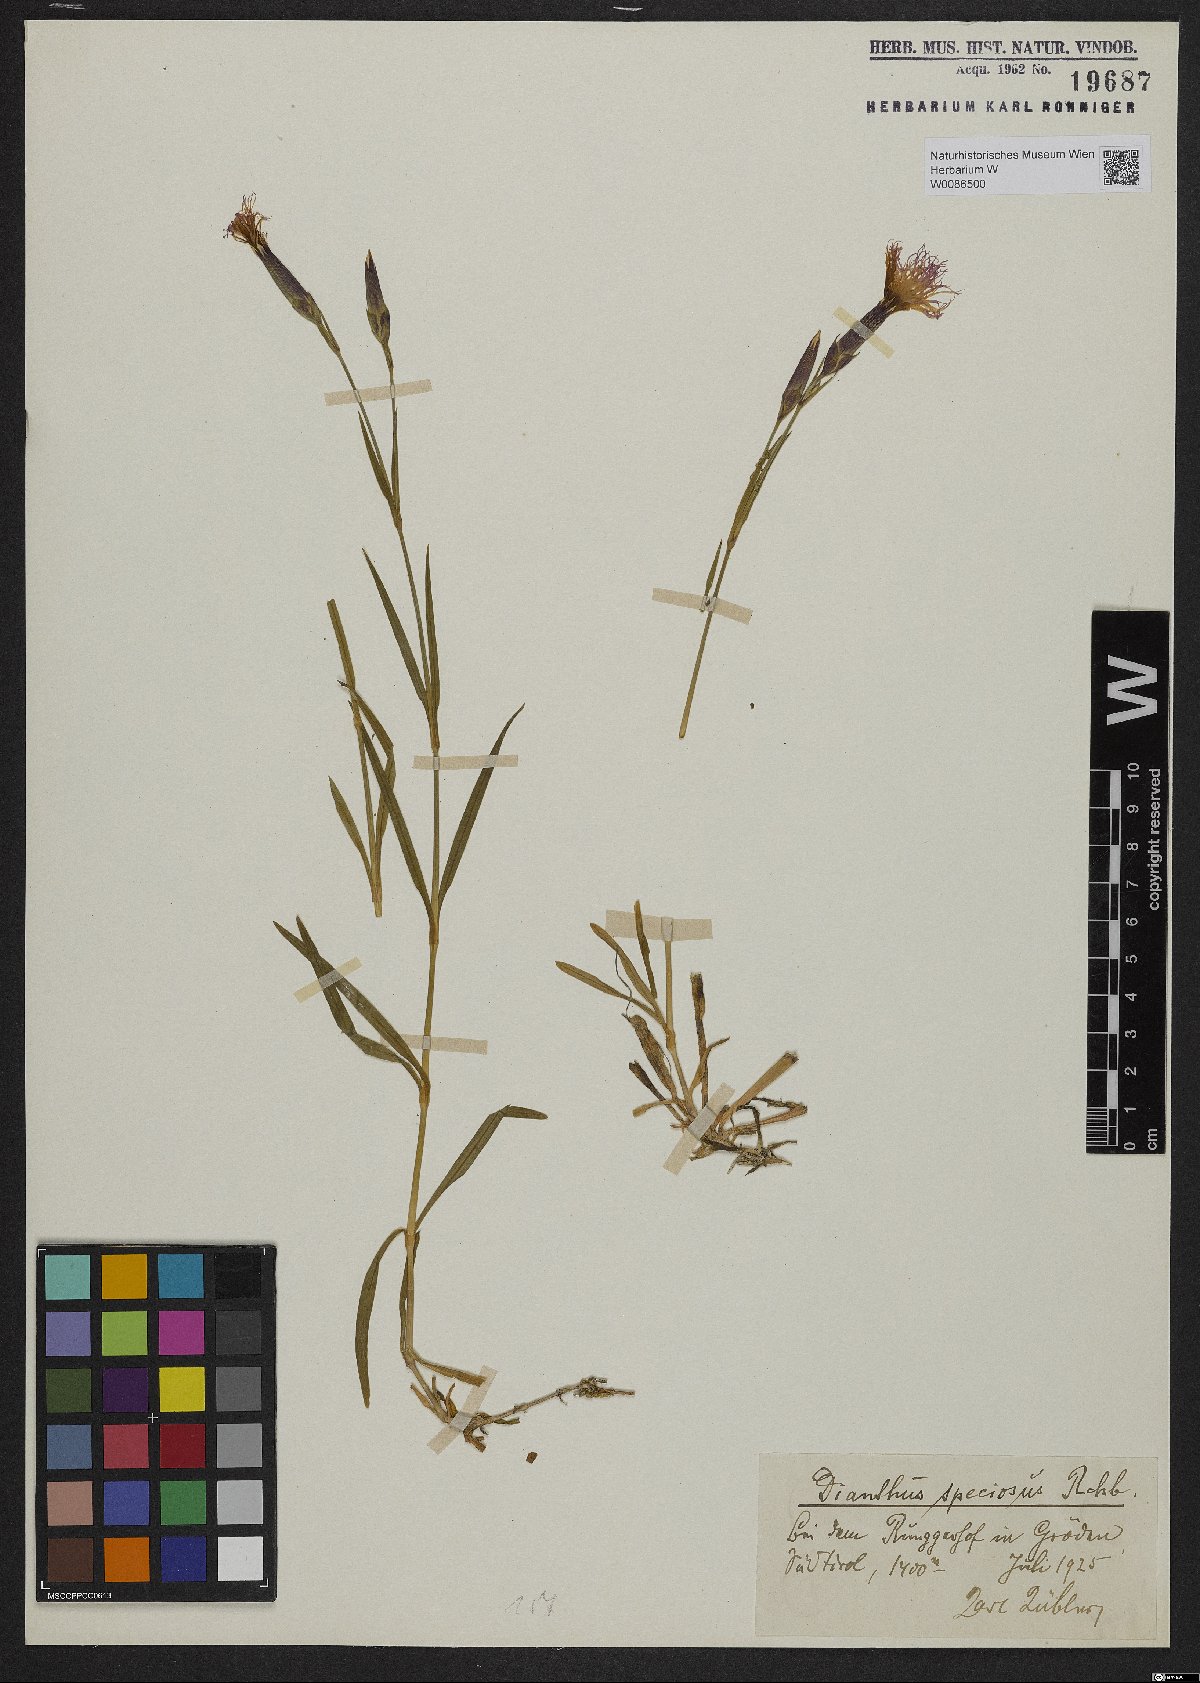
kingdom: Plantae
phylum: Tracheophyta
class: Magnoliopsida
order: Caryophyllales
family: Caryophyllaceae
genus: Dianthus
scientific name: Dianthus superbus
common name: Fringed pink
